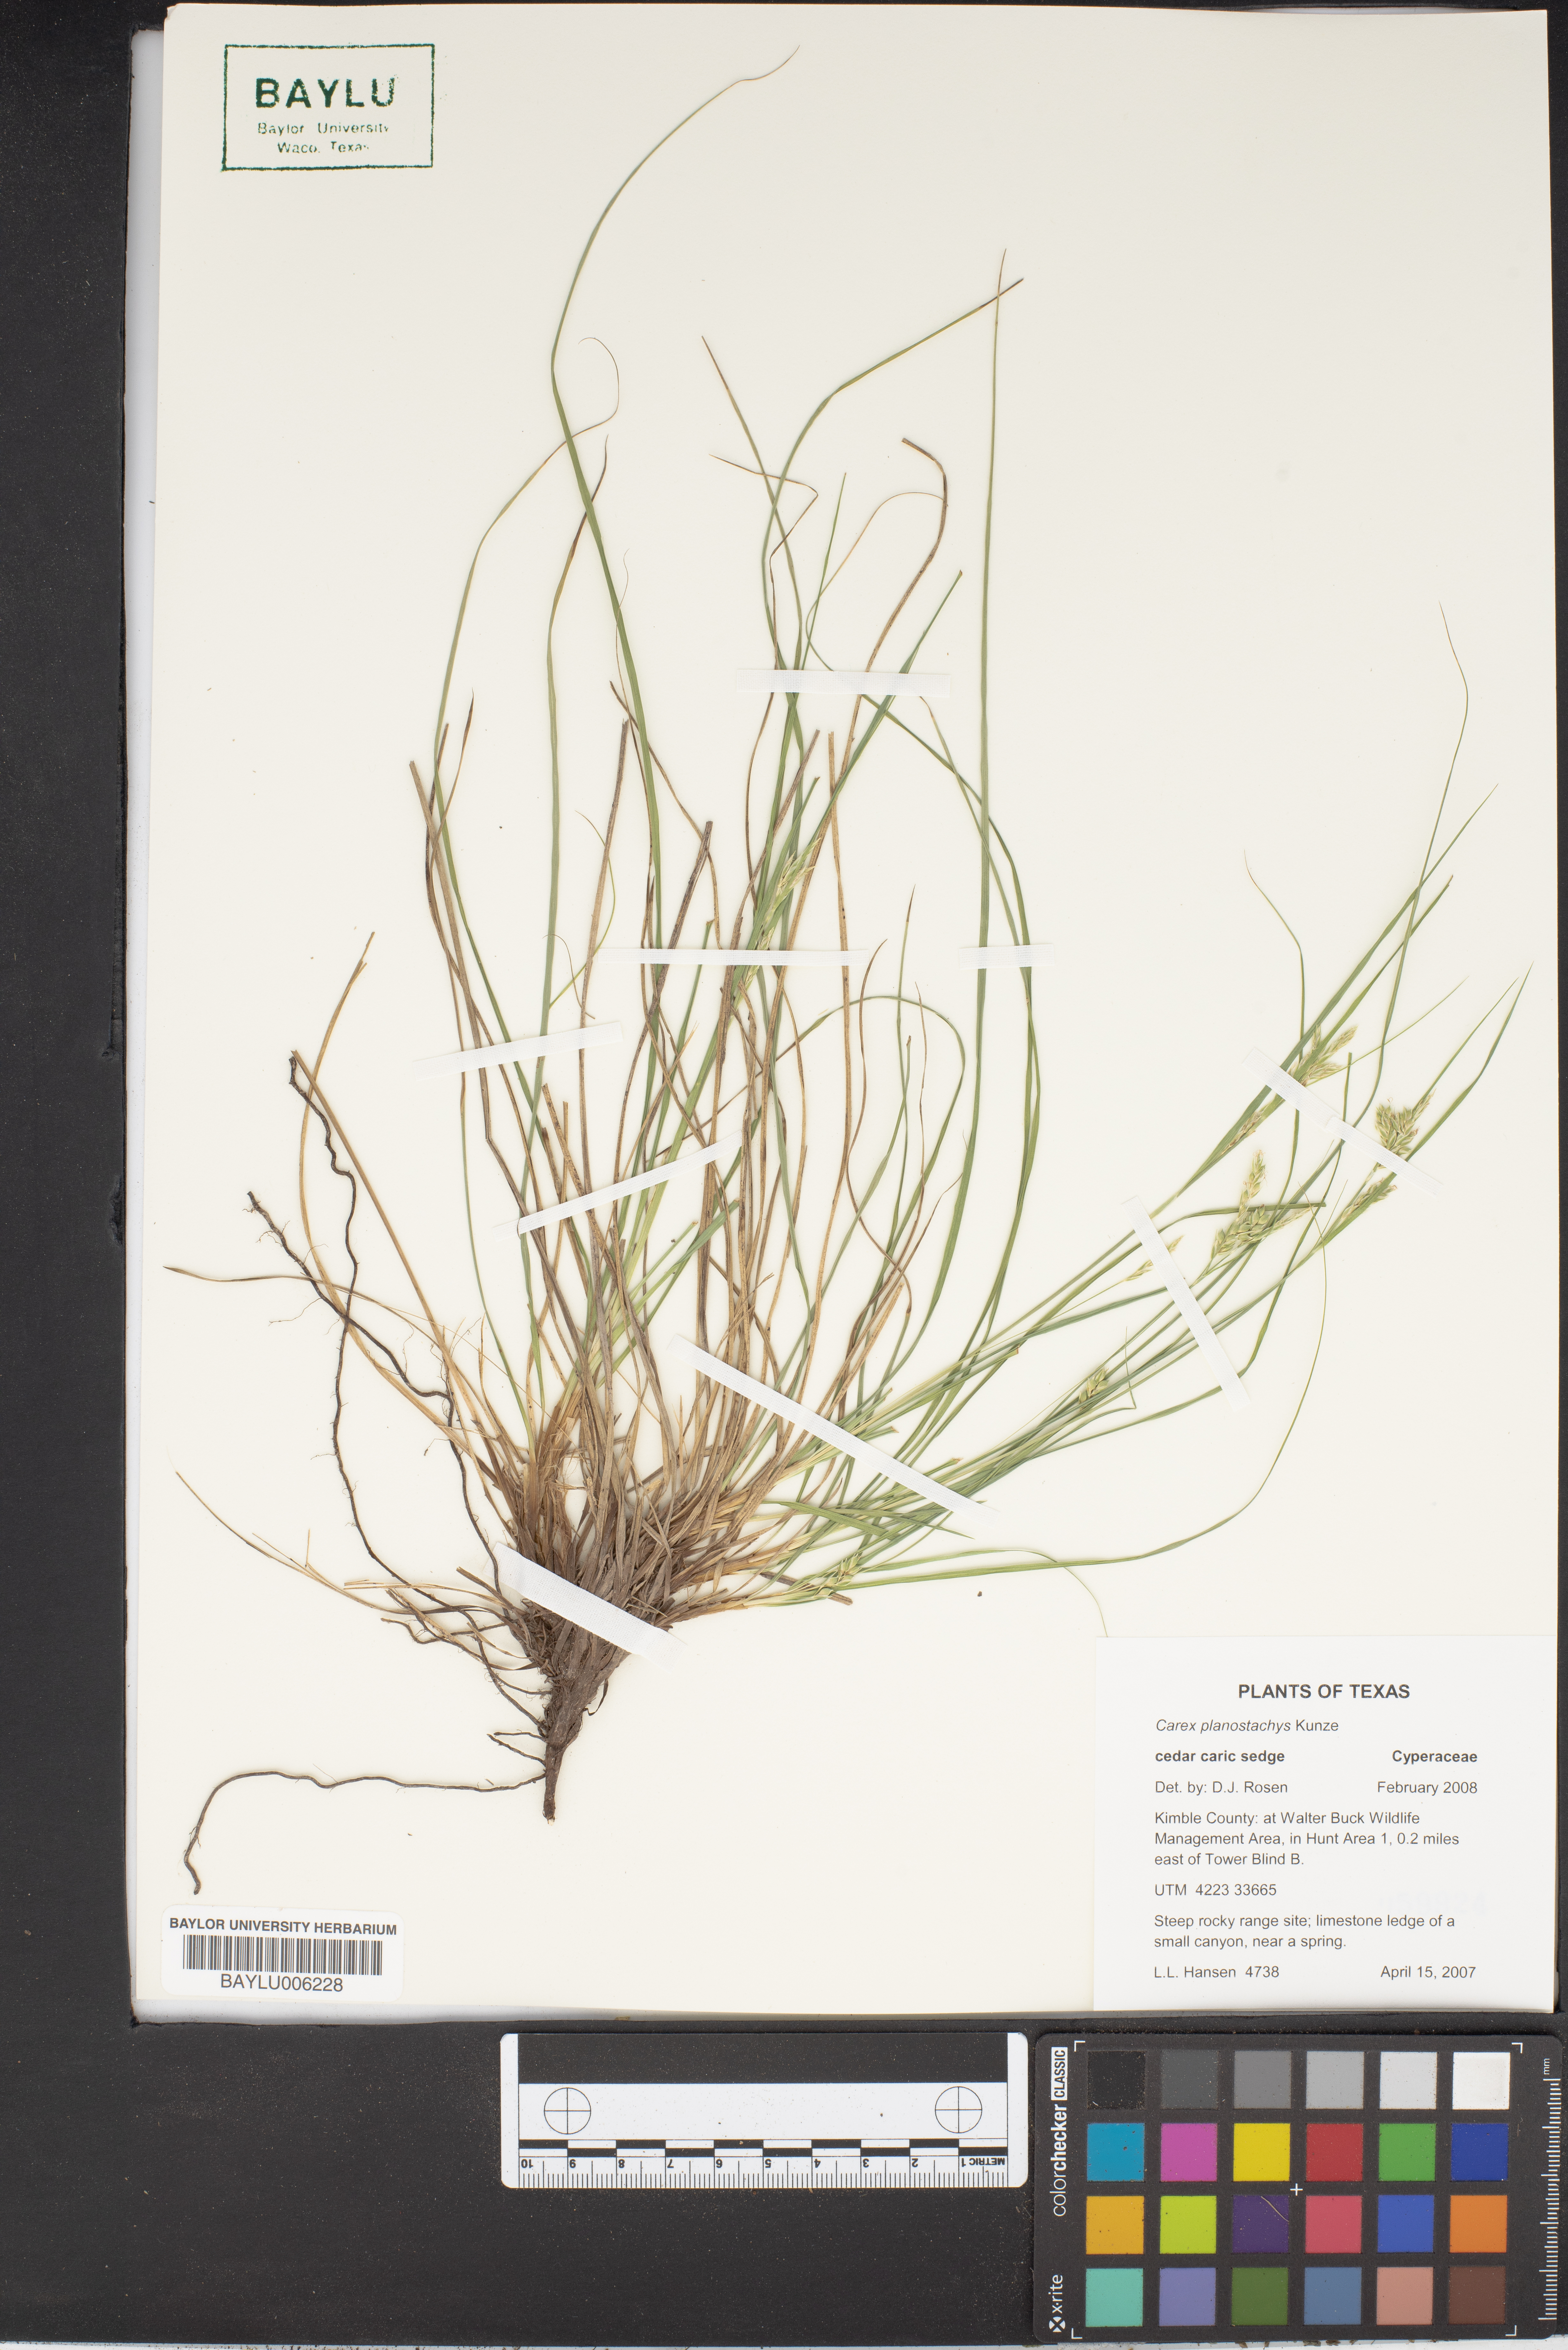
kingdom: Plantae
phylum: Tracheophyta
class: Liliopsida
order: Poales
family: Cyperaceae
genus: Carex
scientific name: Carex planostachys
